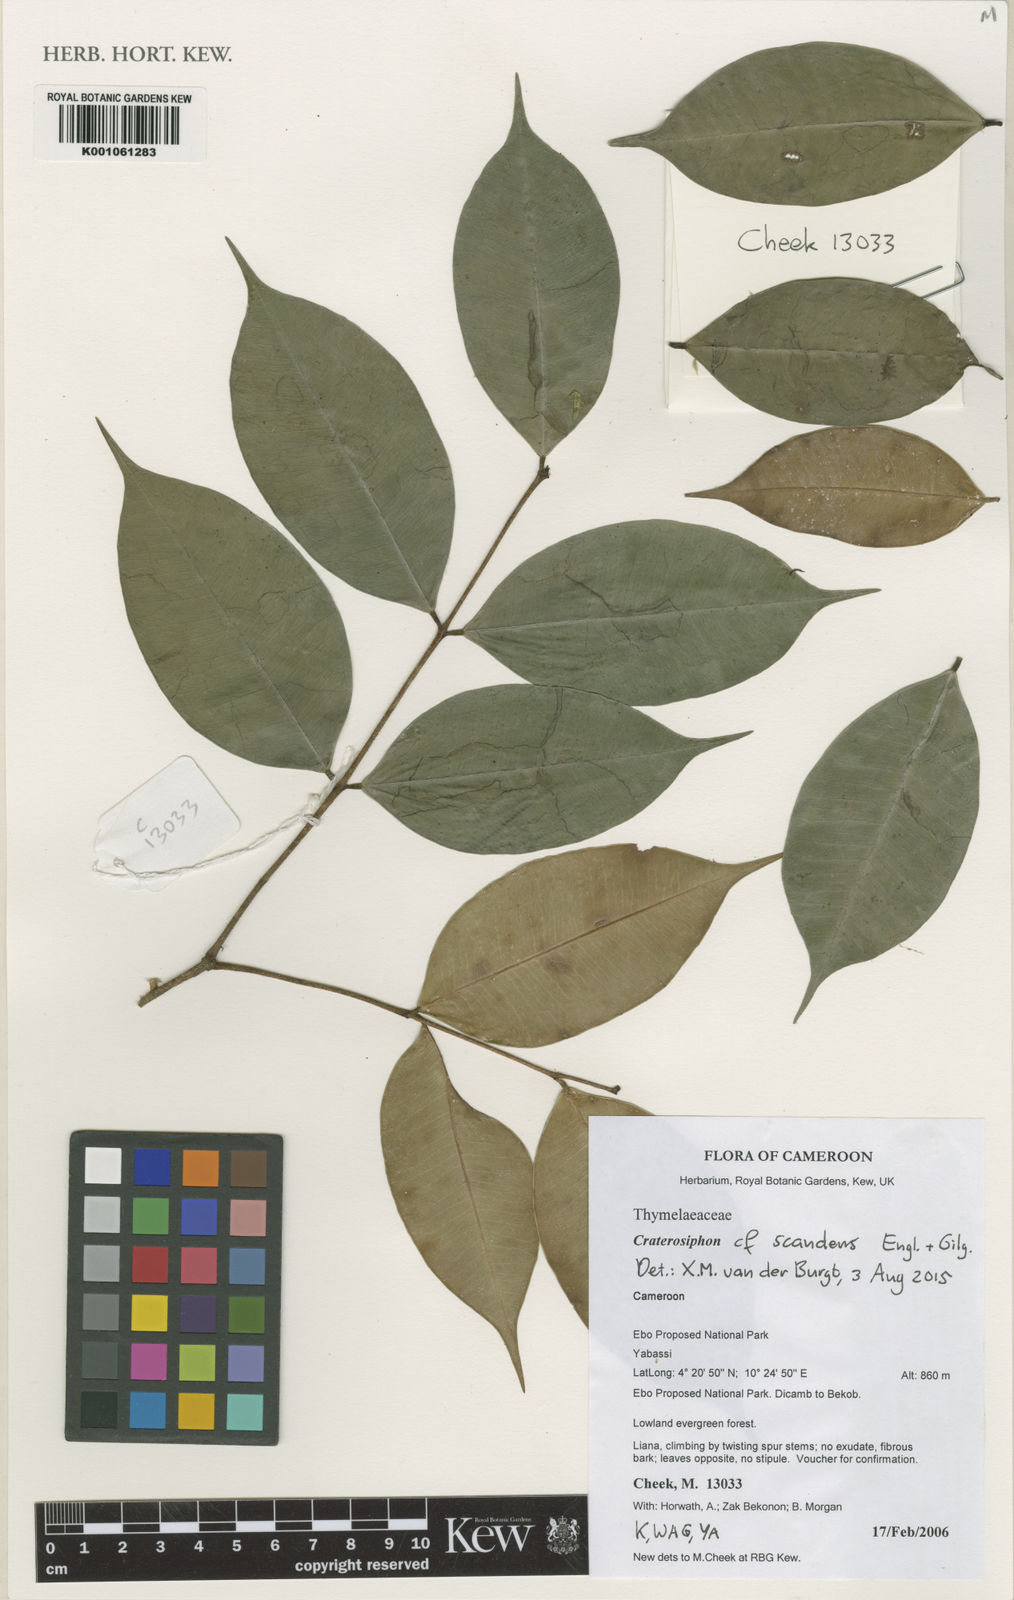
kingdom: Plantae
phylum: Tracheophyta
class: Magnoliopsida
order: Malvales
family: Thymelaeaceae
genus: Craterosiphon
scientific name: Craterosiphon scandens
